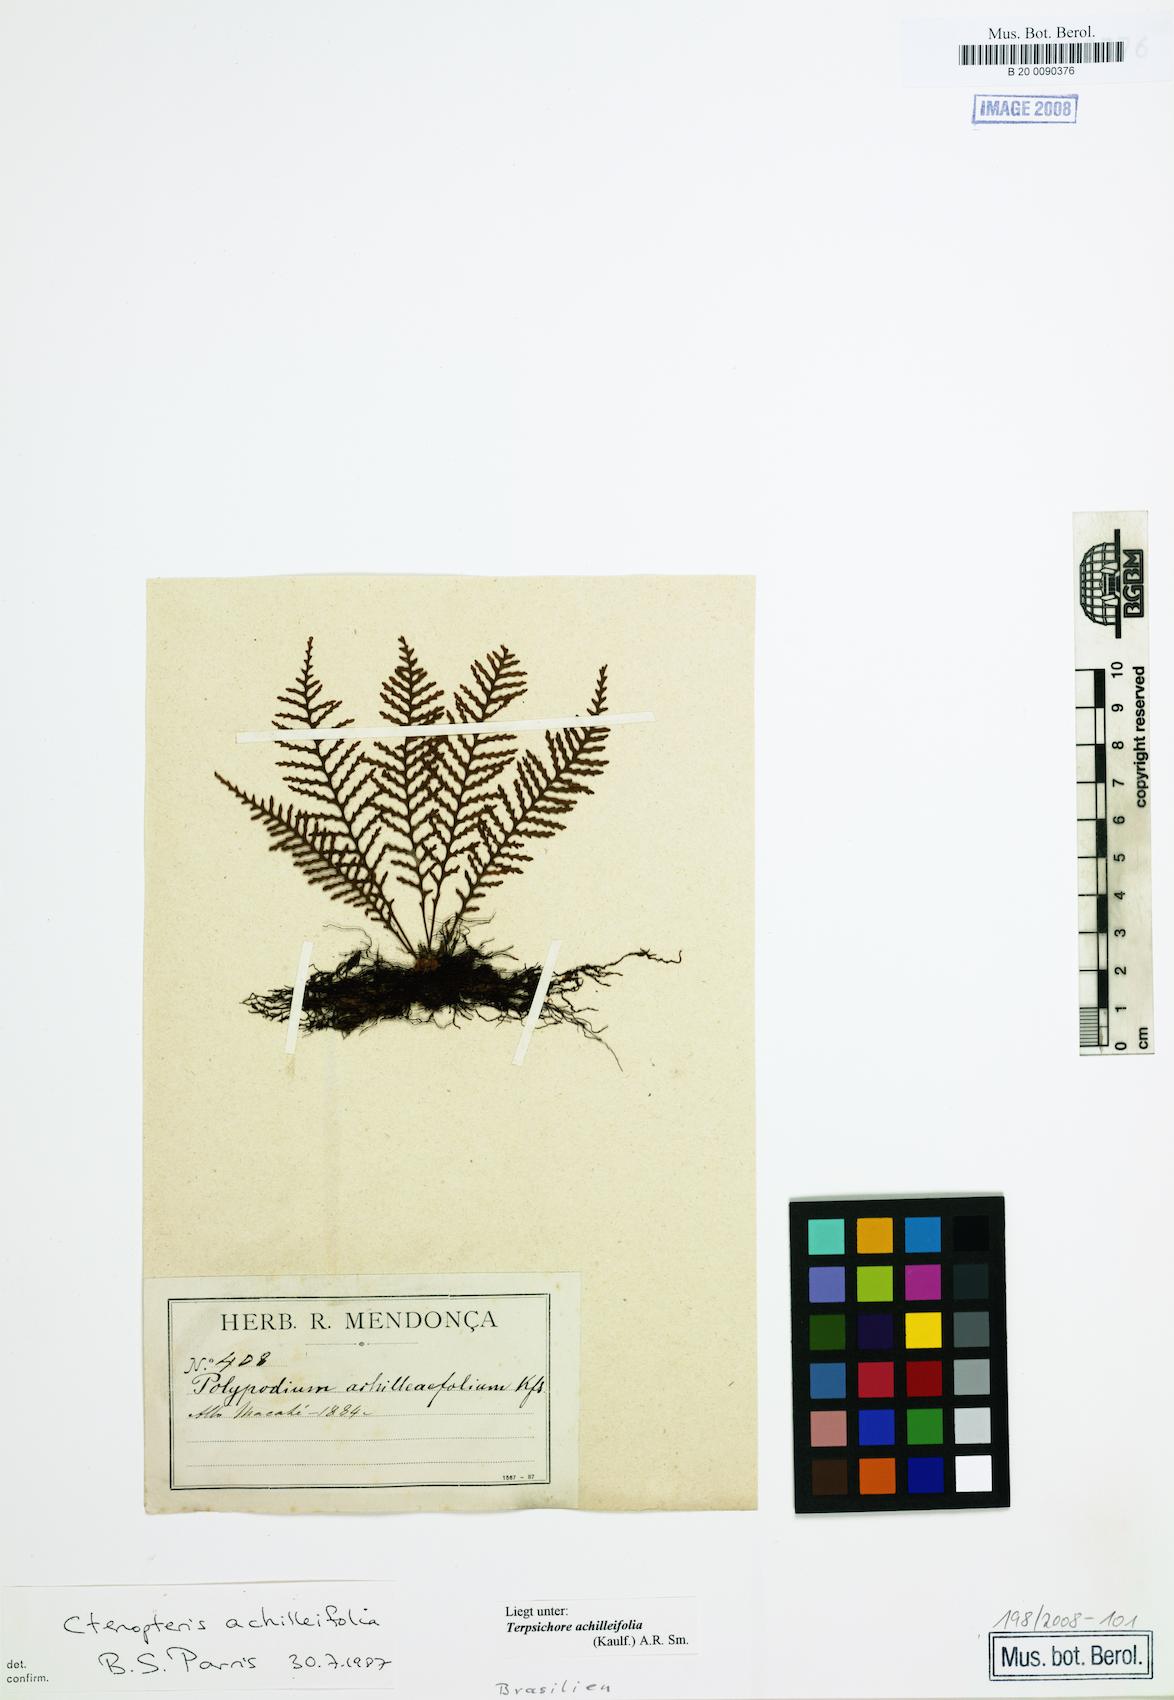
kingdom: Plantae
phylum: Tracheophyta
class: Polypodiopsida
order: Polypodiales
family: Polypodiaceae
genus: Moranopteris
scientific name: Moranopteris achilleifolia
